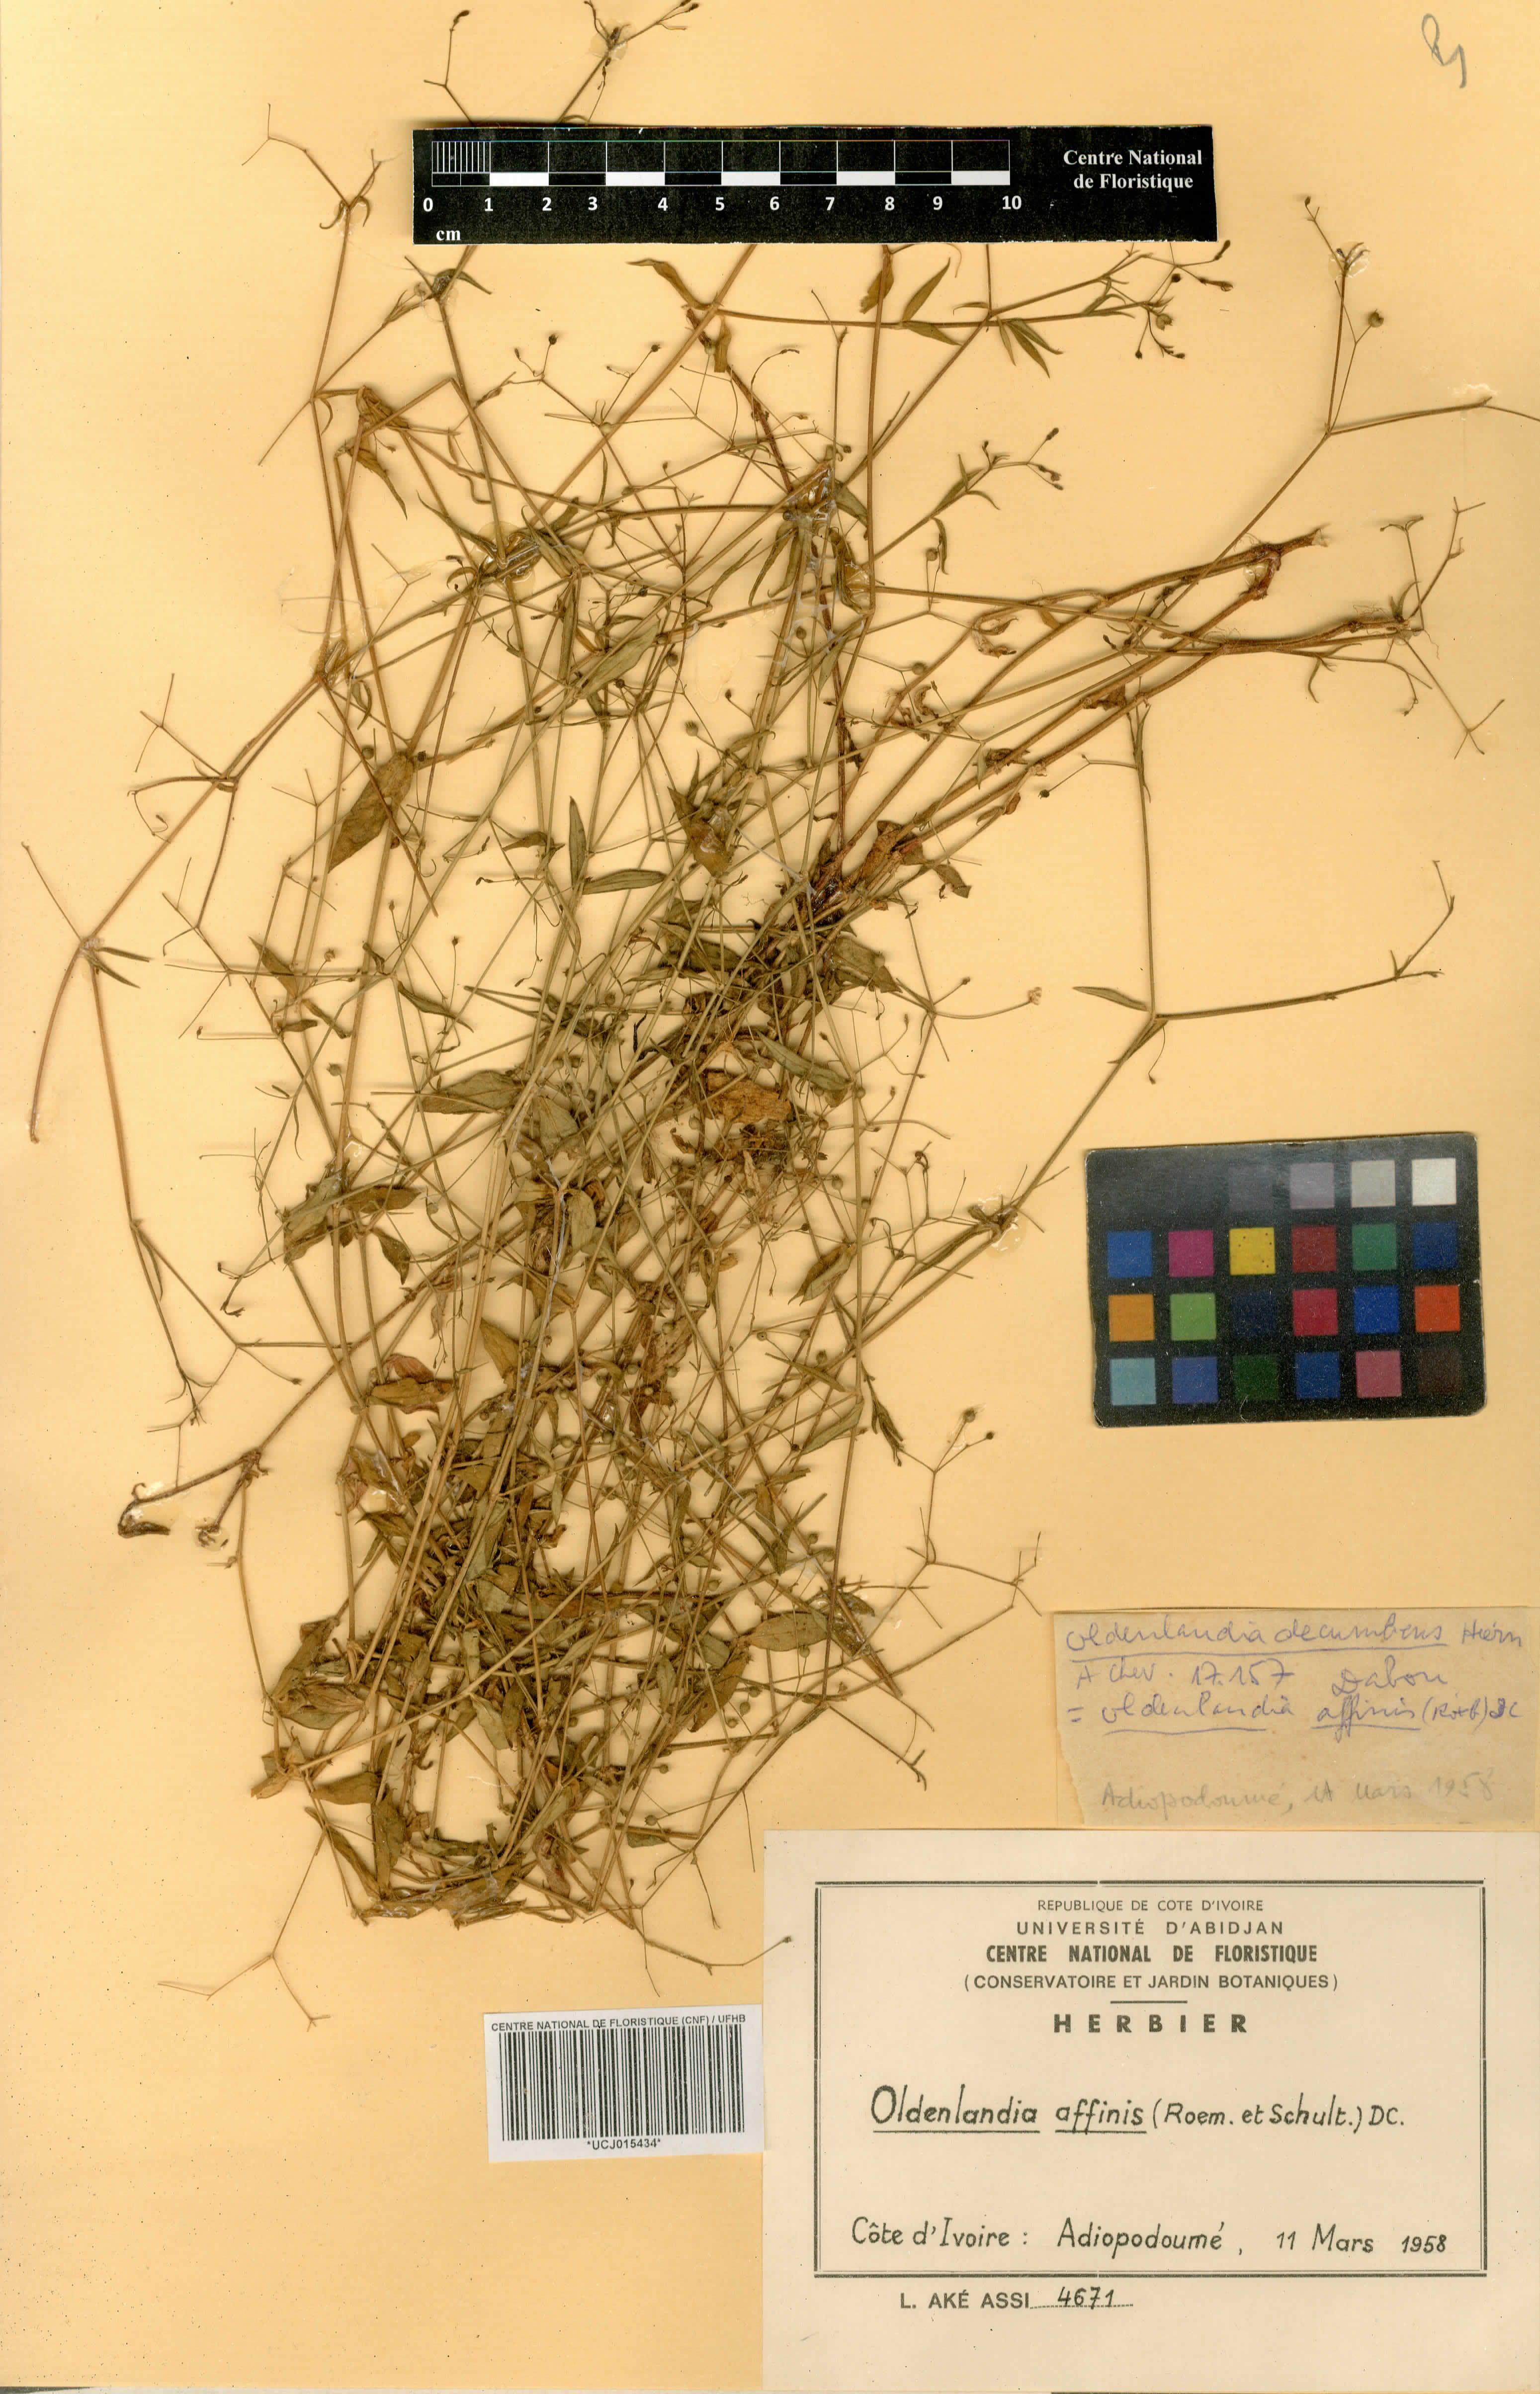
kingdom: Plantae
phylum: Tracheophyta
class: Magnoliopsida
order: Gentianales
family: Rubiaceae
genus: Oldenlandia
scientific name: Oldenlandia affinis
